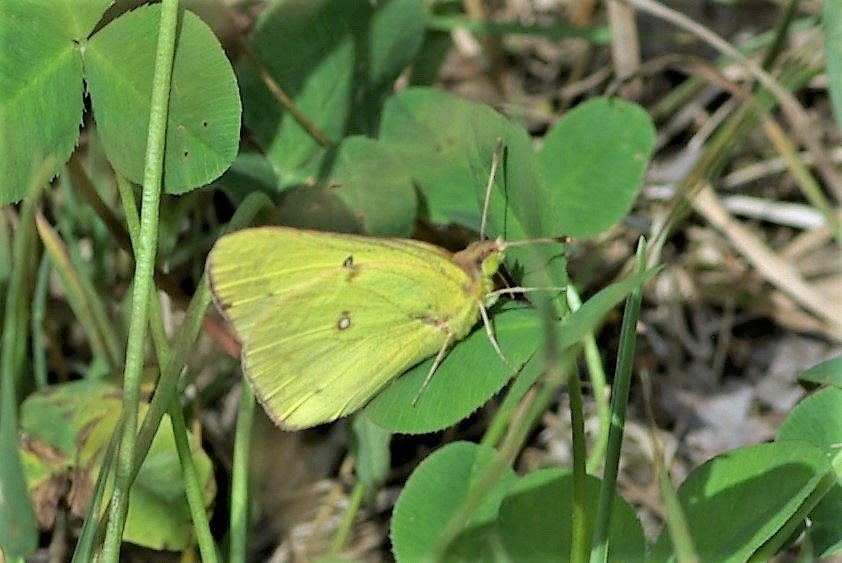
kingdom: Animalia
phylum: Arthropoda
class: Insecta
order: Lepidoptera
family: Pieridae
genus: Colias
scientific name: Colias philodice
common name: Clouded Sulphur
